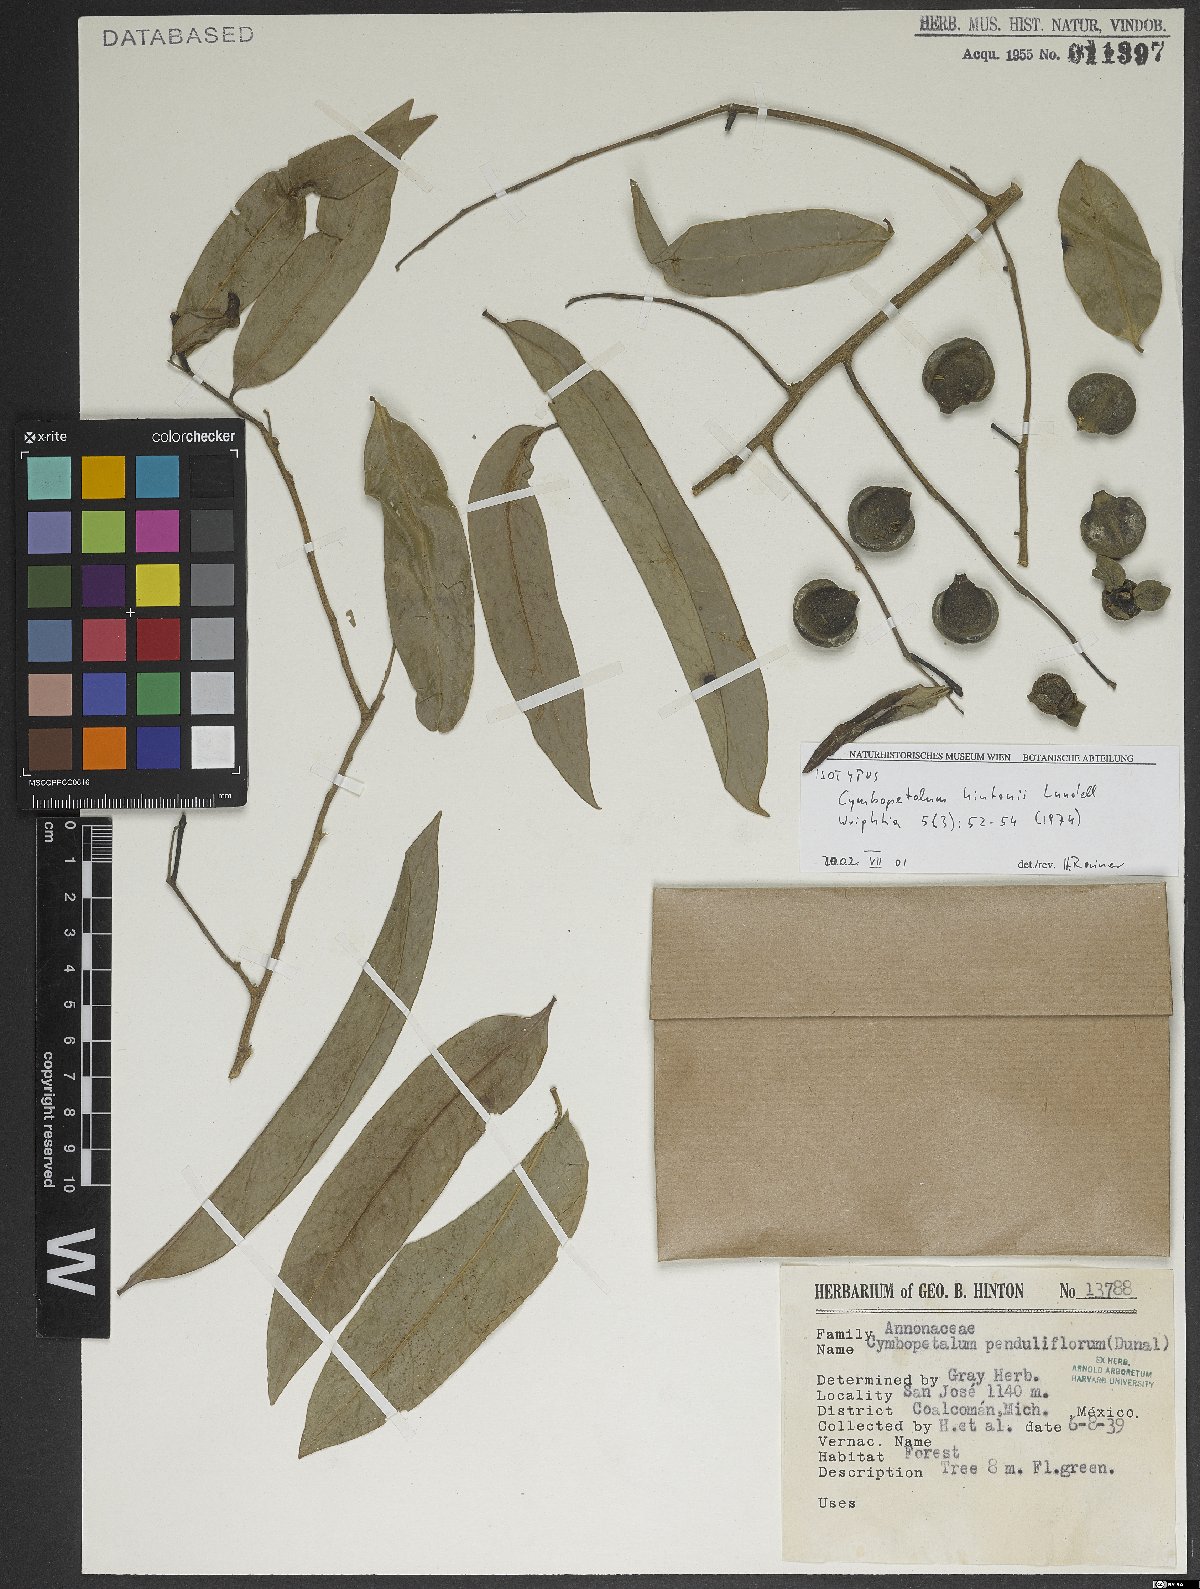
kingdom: Plantae
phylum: Tracheophyta
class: Magnoliopsida
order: Magnoliales
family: Annonaceae
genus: Cymbopetalum
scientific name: Cymbopetalum hintonii
